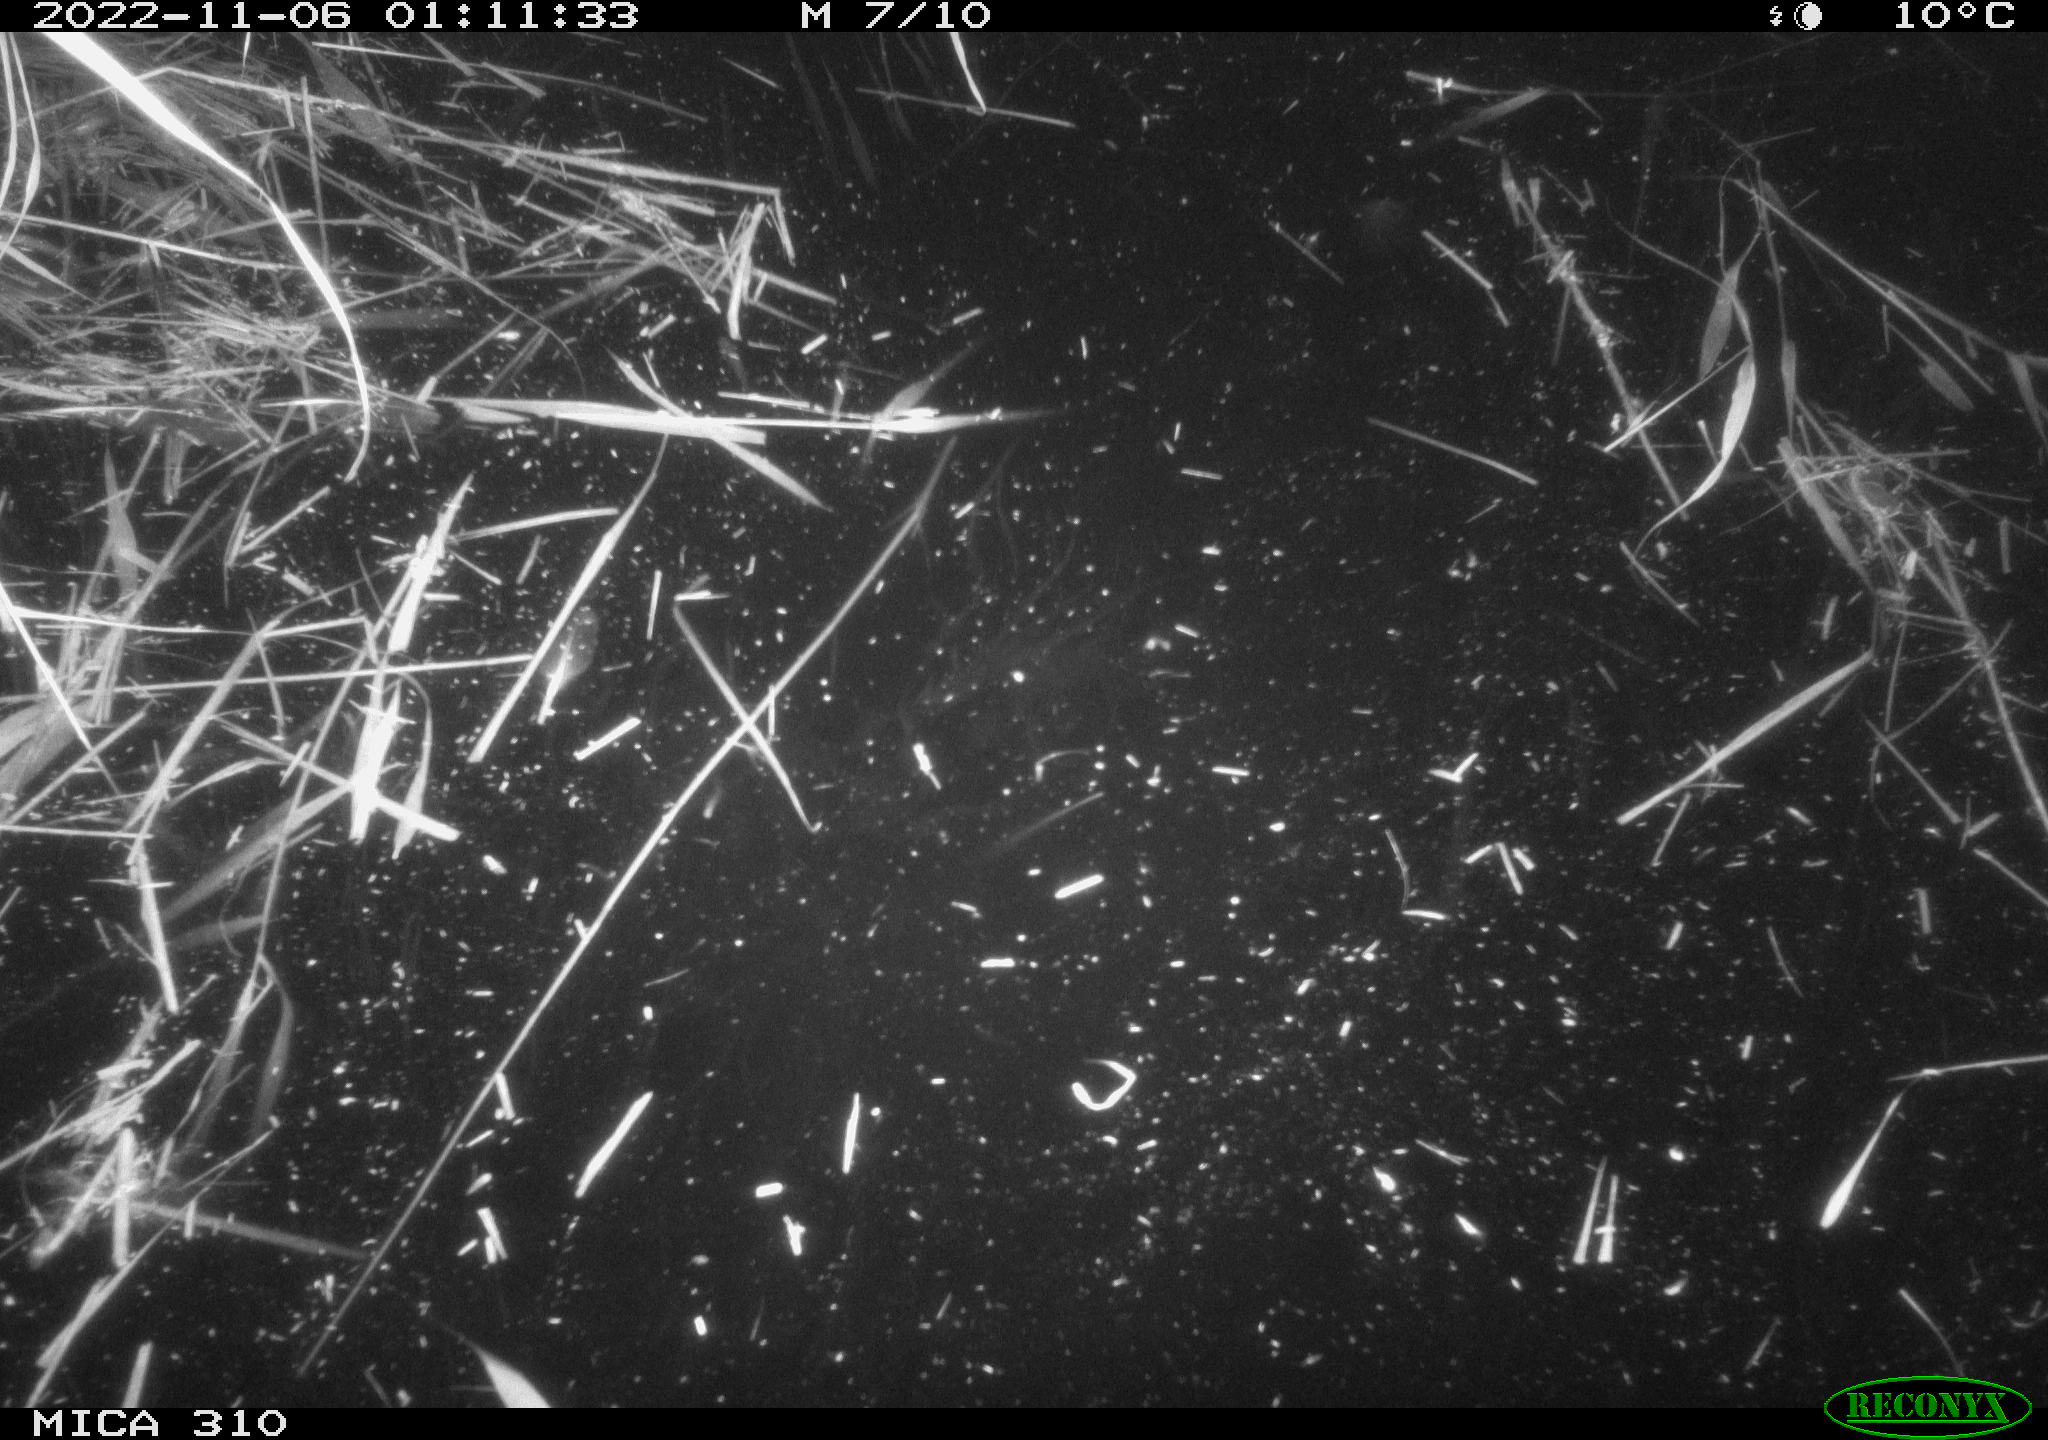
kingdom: Animalia
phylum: Chordata
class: Mammalia
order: Rodentia
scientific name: Rodentia
